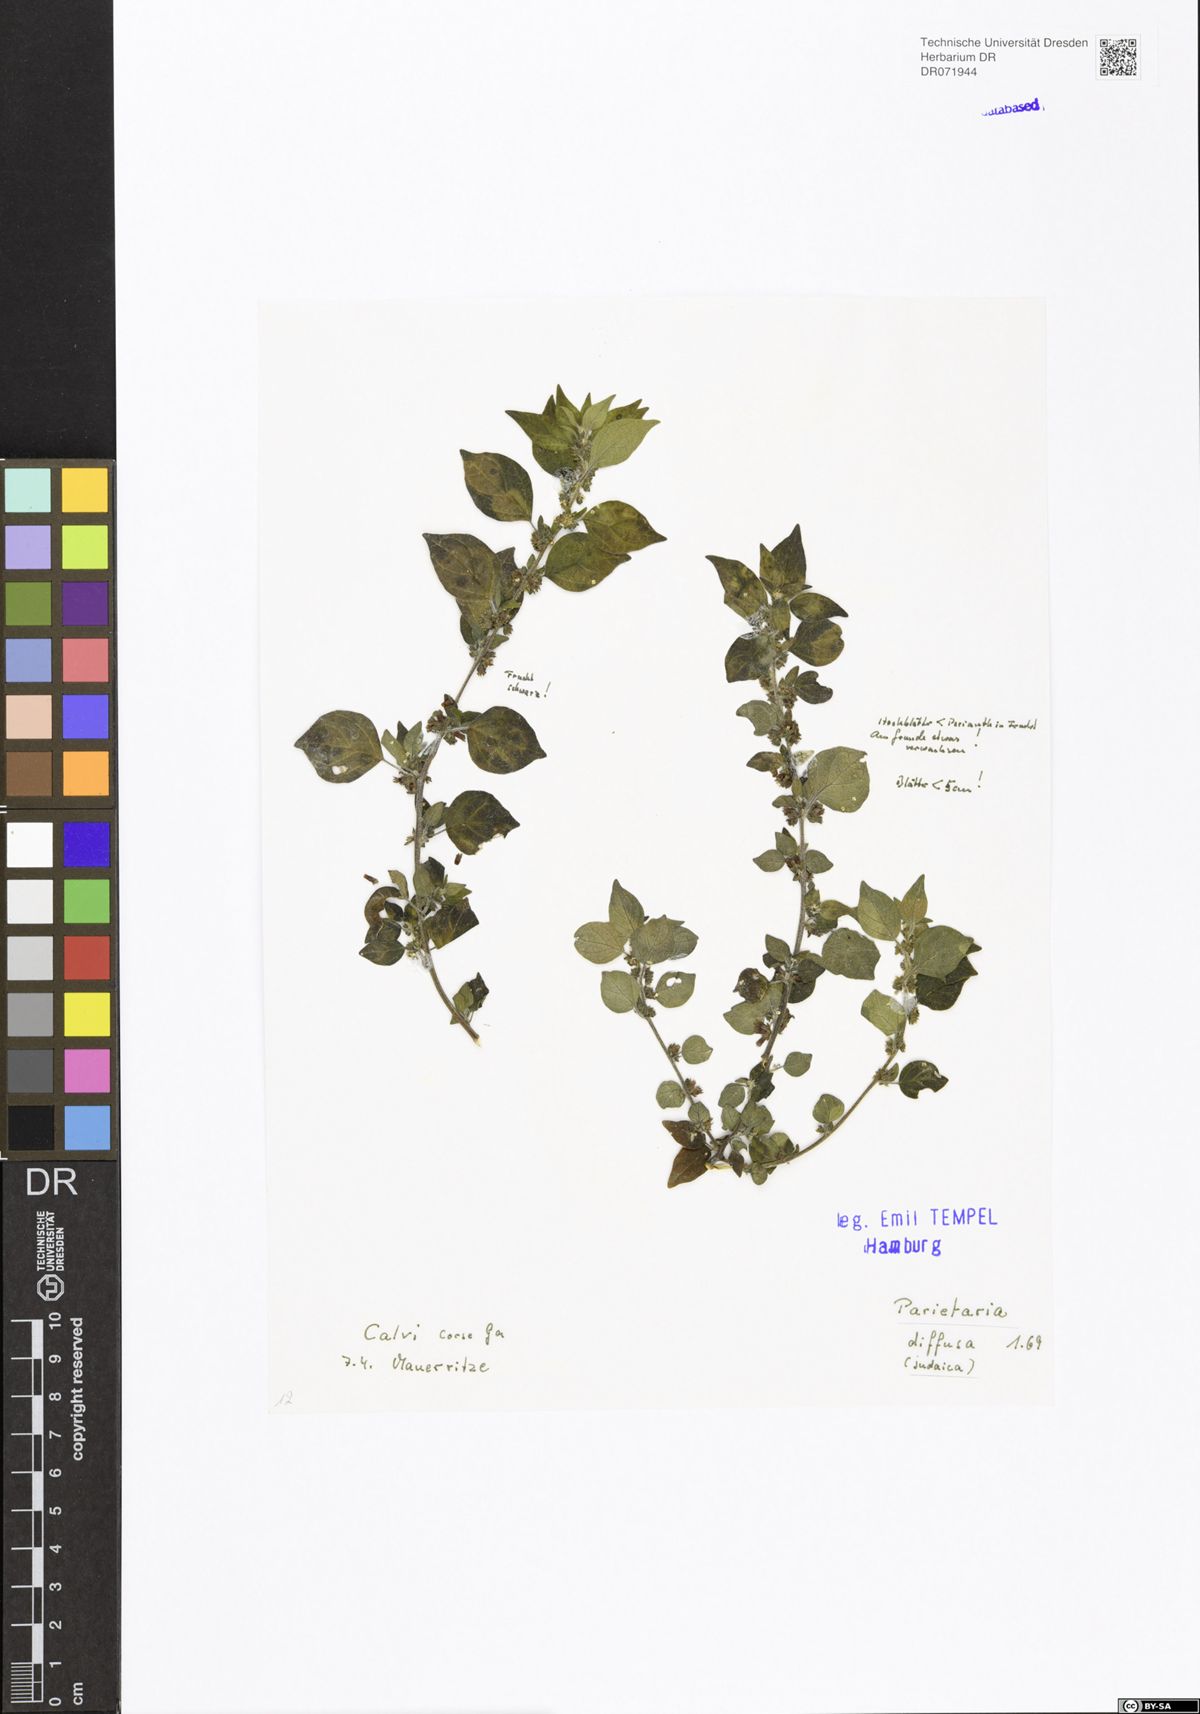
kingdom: Plantae
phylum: Tracheophyta
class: Magnoliopsida
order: Rosales
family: Urticaceae
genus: Parietaria
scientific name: Parietaria judaica
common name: Pellitory-of-the-wall
